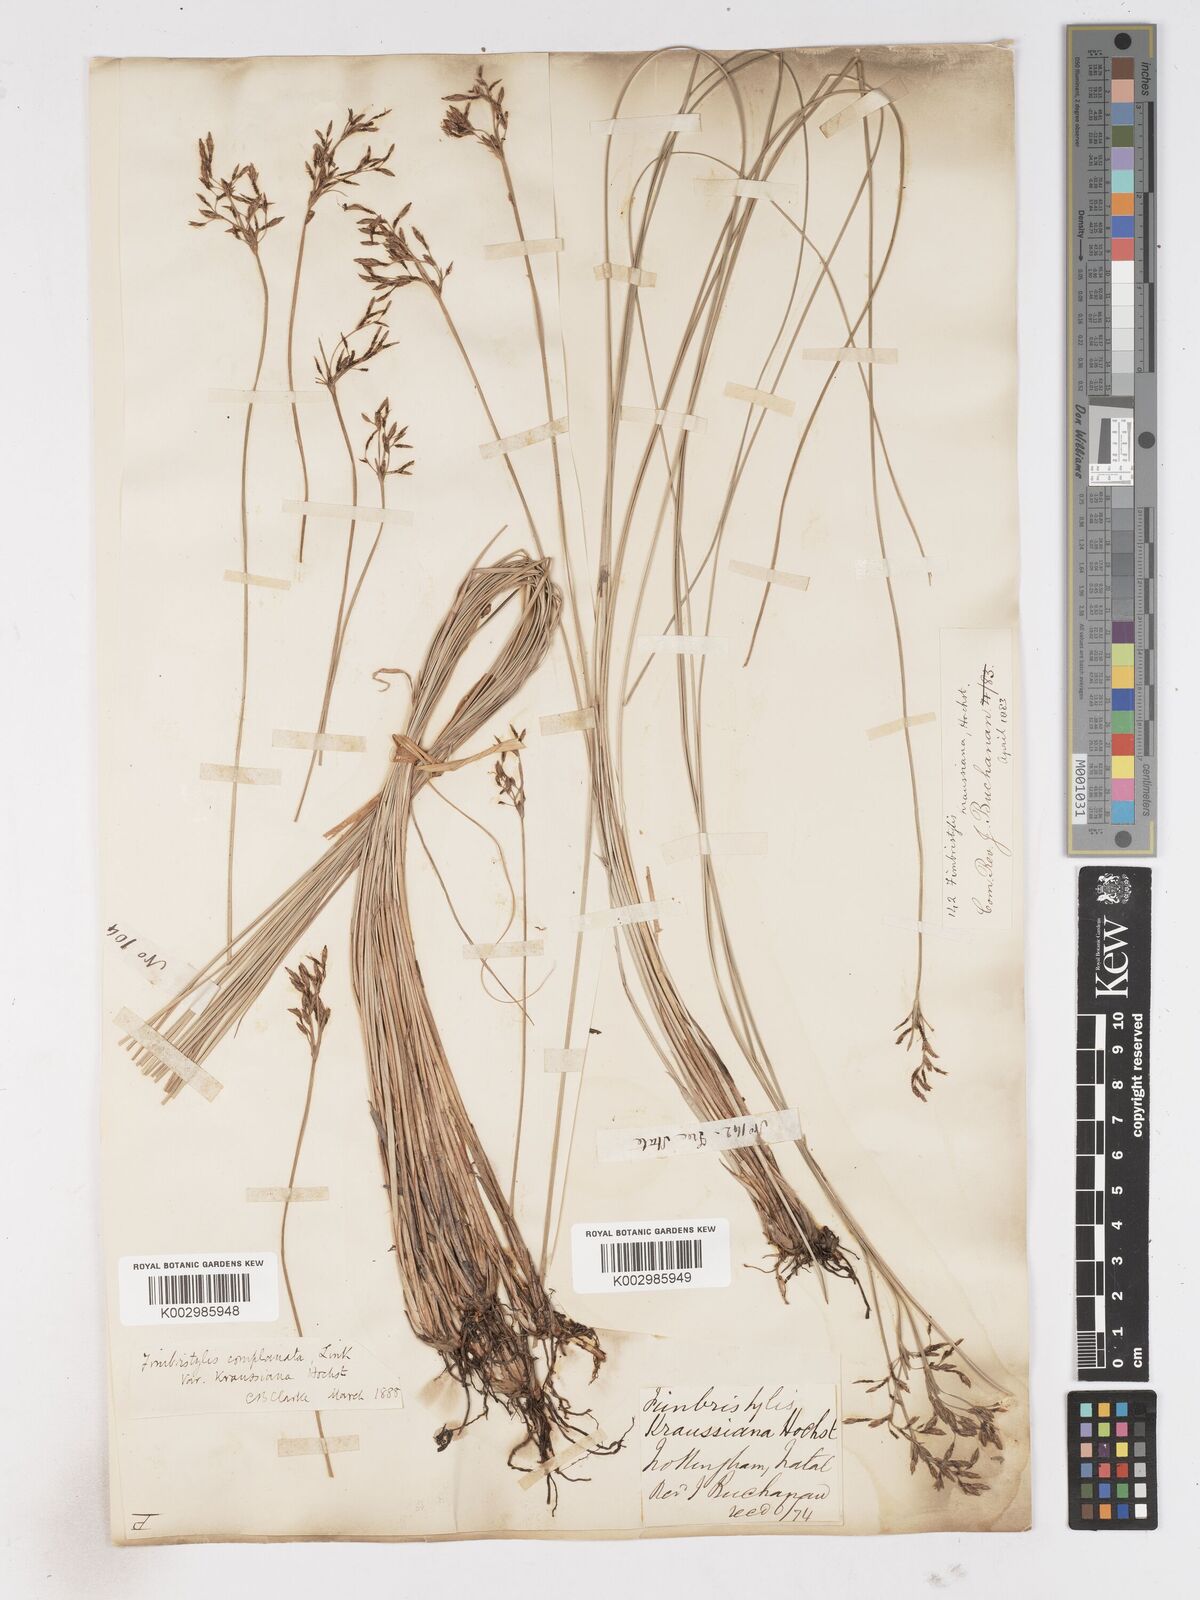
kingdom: Plantae
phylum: Tracheophyta
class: Liliopsida
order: Poales
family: Cyperaceae
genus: Fimbristylis
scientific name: Fimbristylis complanata
